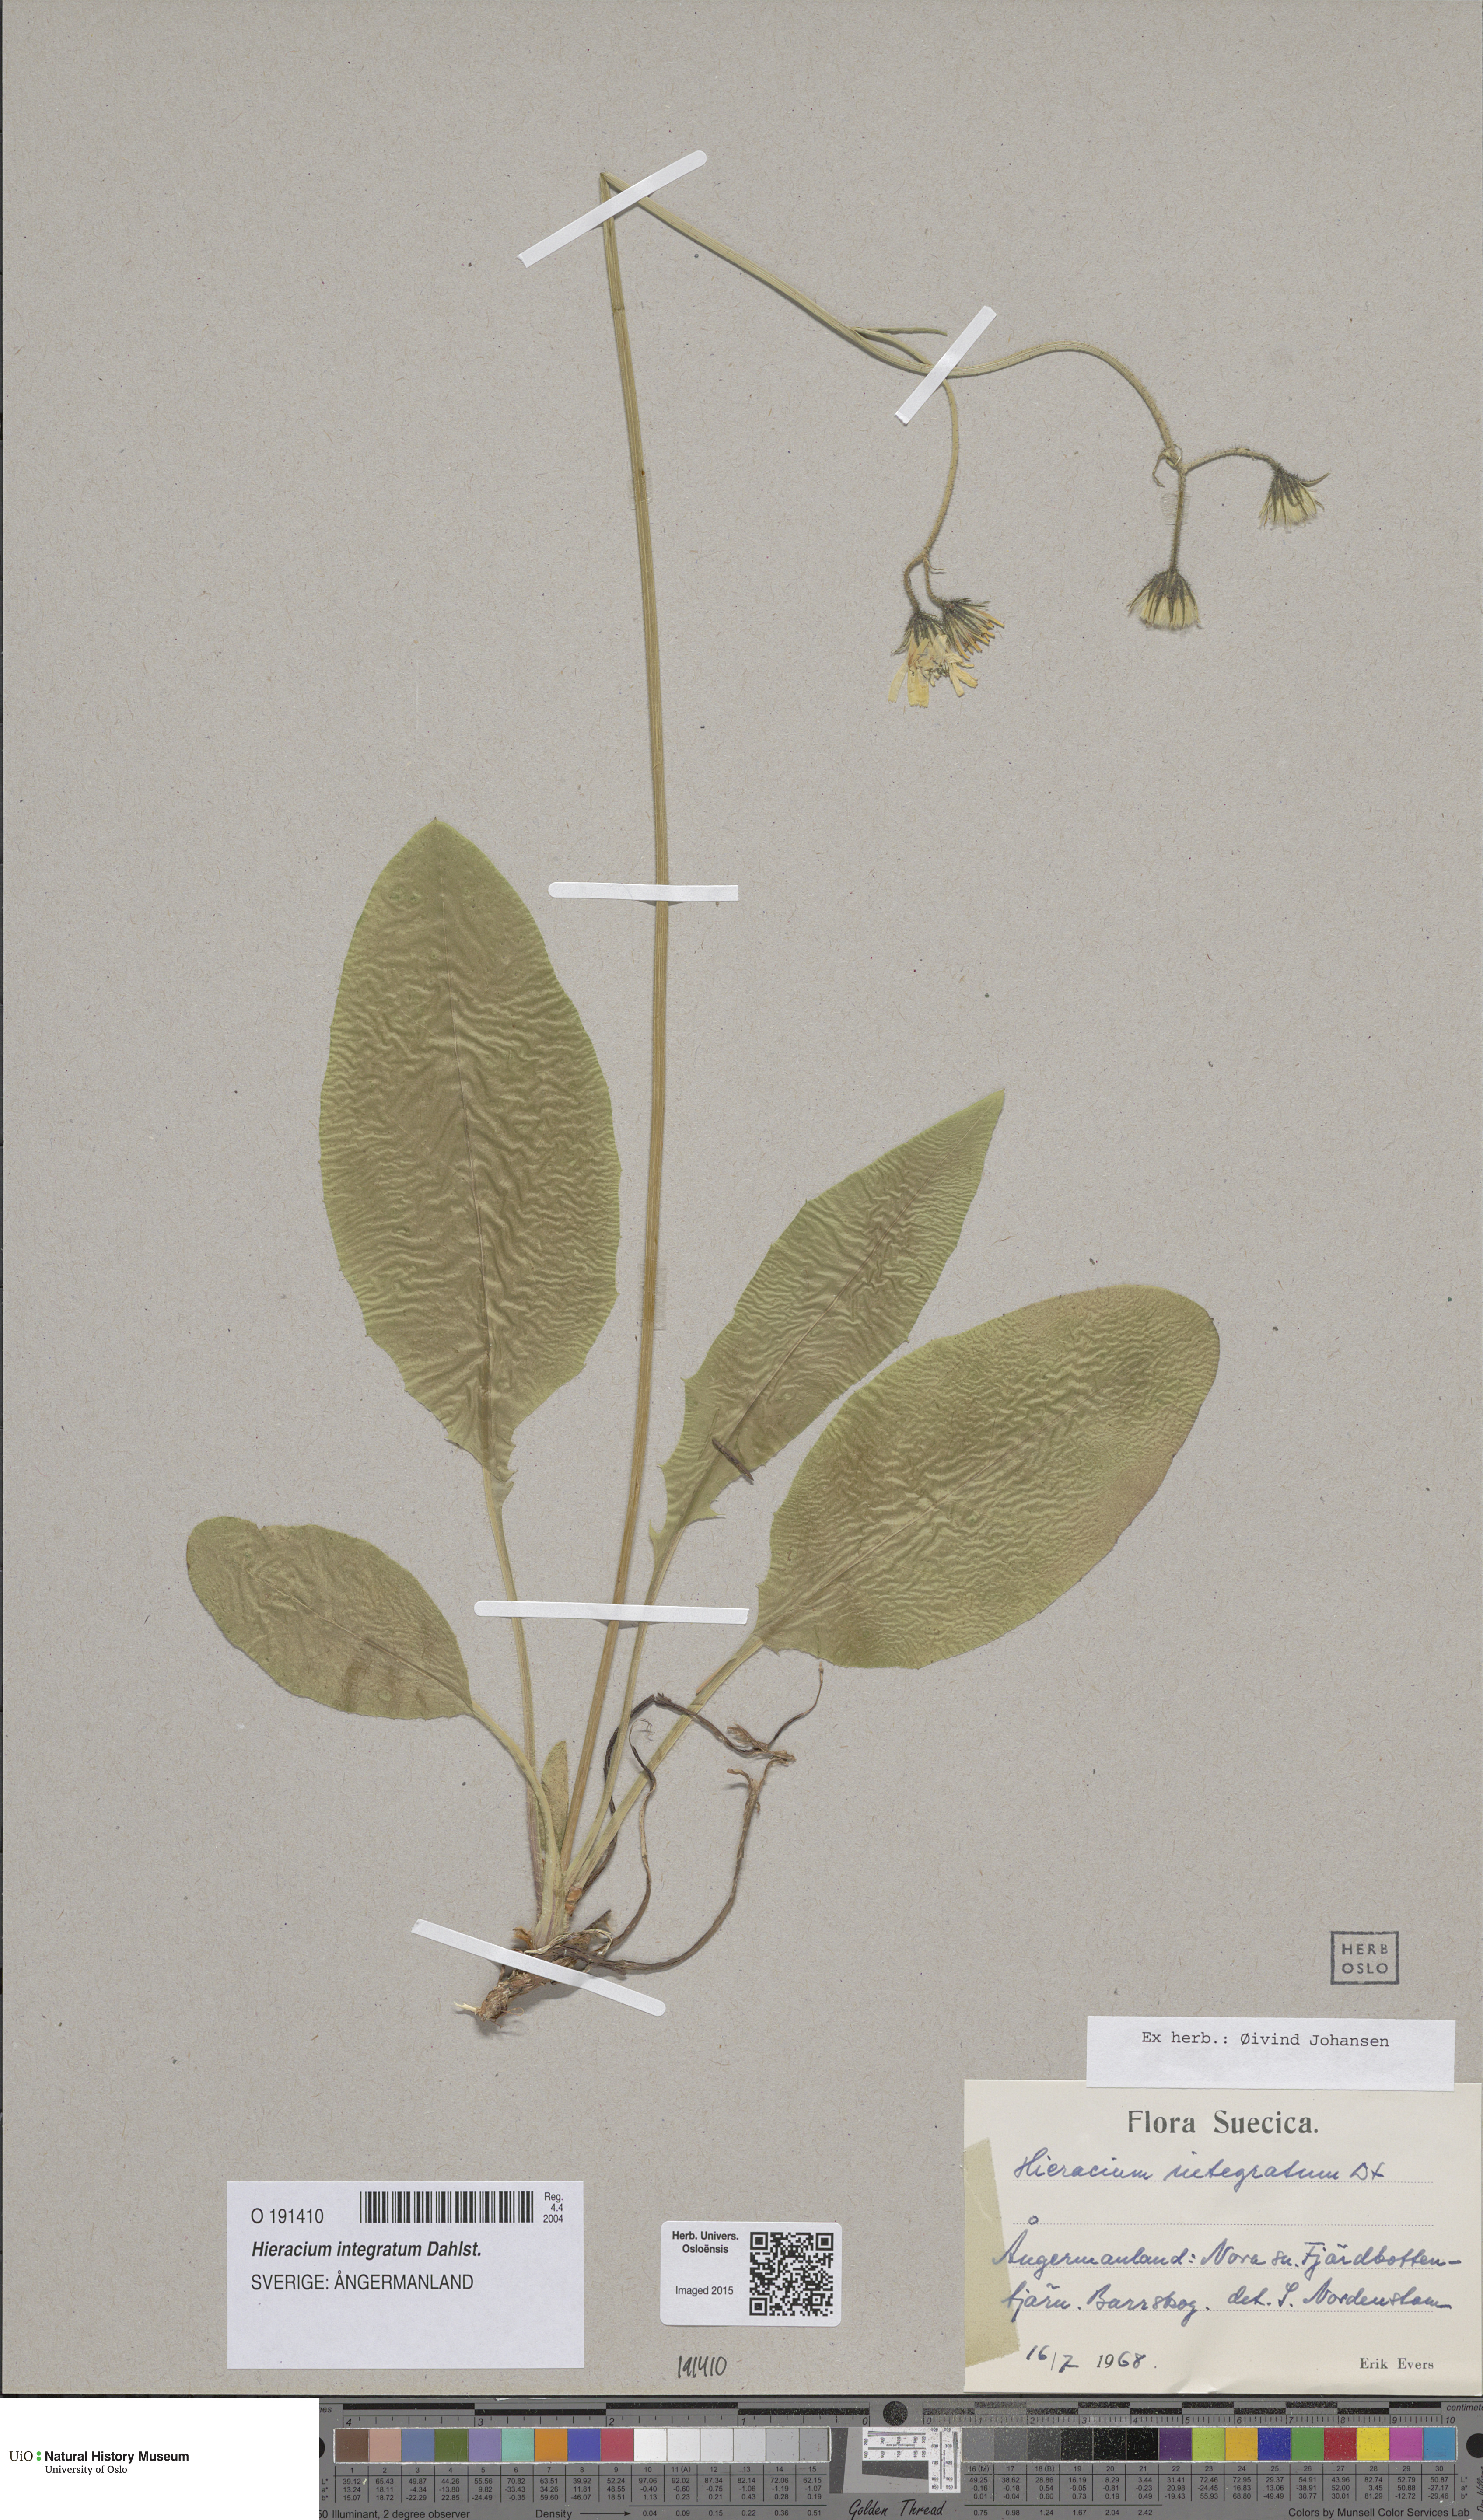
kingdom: Plantae
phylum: Tracheophyta
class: Magnoliopsida
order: Asterales
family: Asteraceae
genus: Hieracium
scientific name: Hieracium murorum
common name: Wall hawkweed
